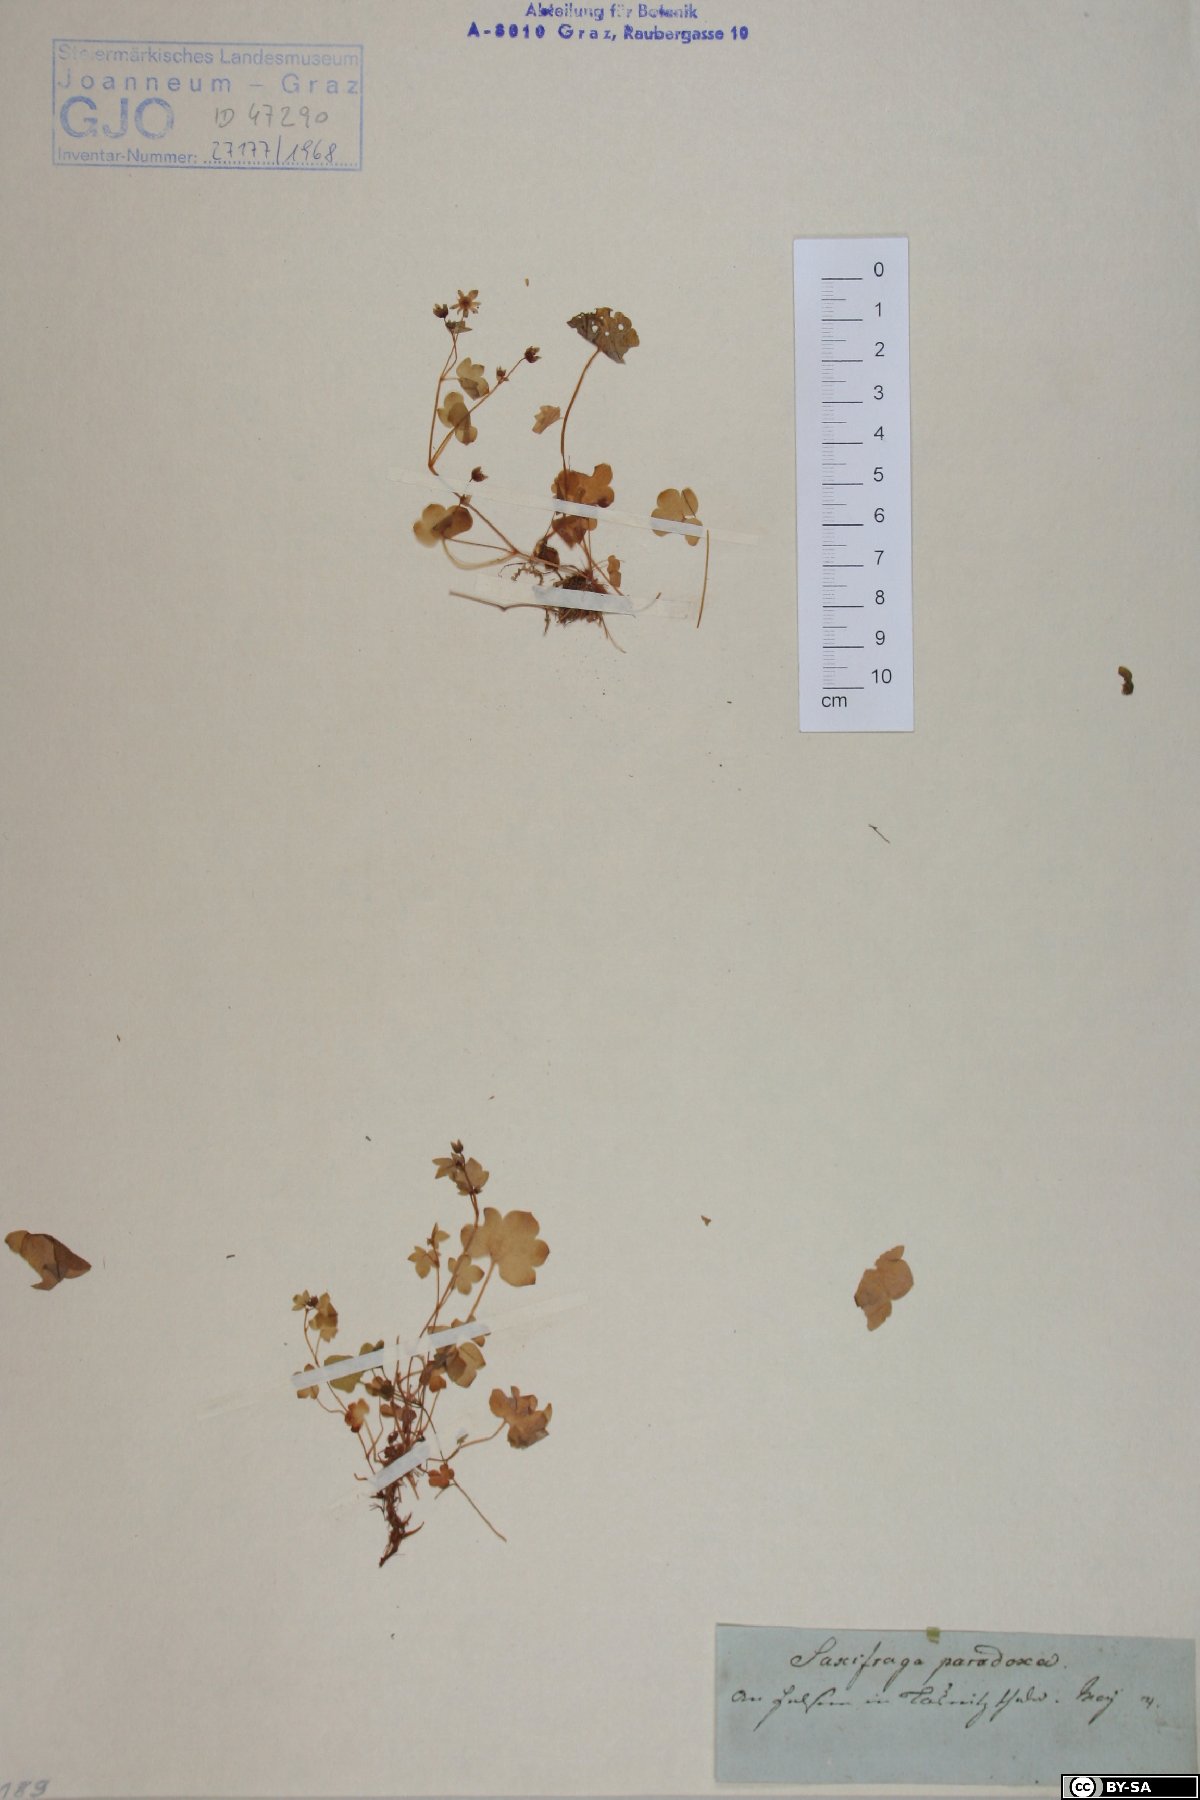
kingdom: Plantae
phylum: Tracheophyta
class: Magnoliopsida
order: Saxifragales
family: Saxifragaceae
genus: Saxifraga
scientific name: Saxifraga paradoxa
